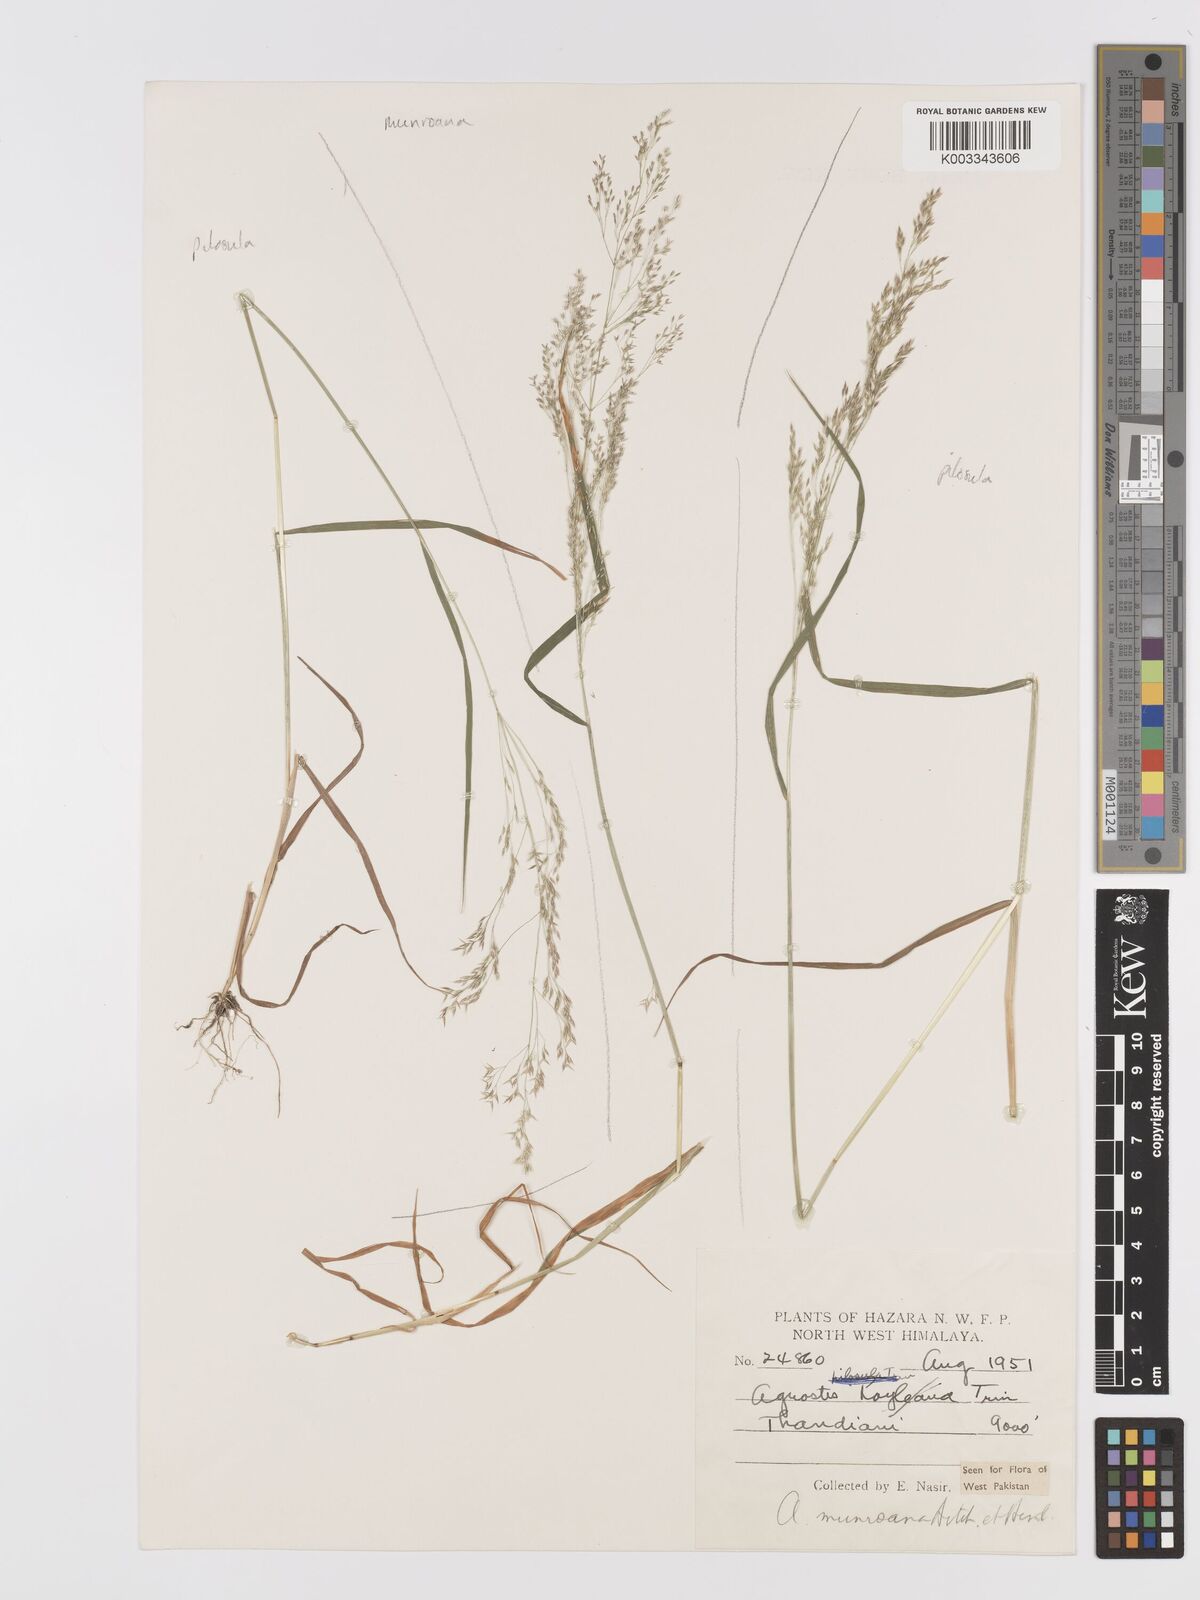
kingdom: Plantae
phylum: Tracheophyta
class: Liliopsida
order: Poales
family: Poaceae
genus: Agrostis
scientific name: Agrostis munroana
